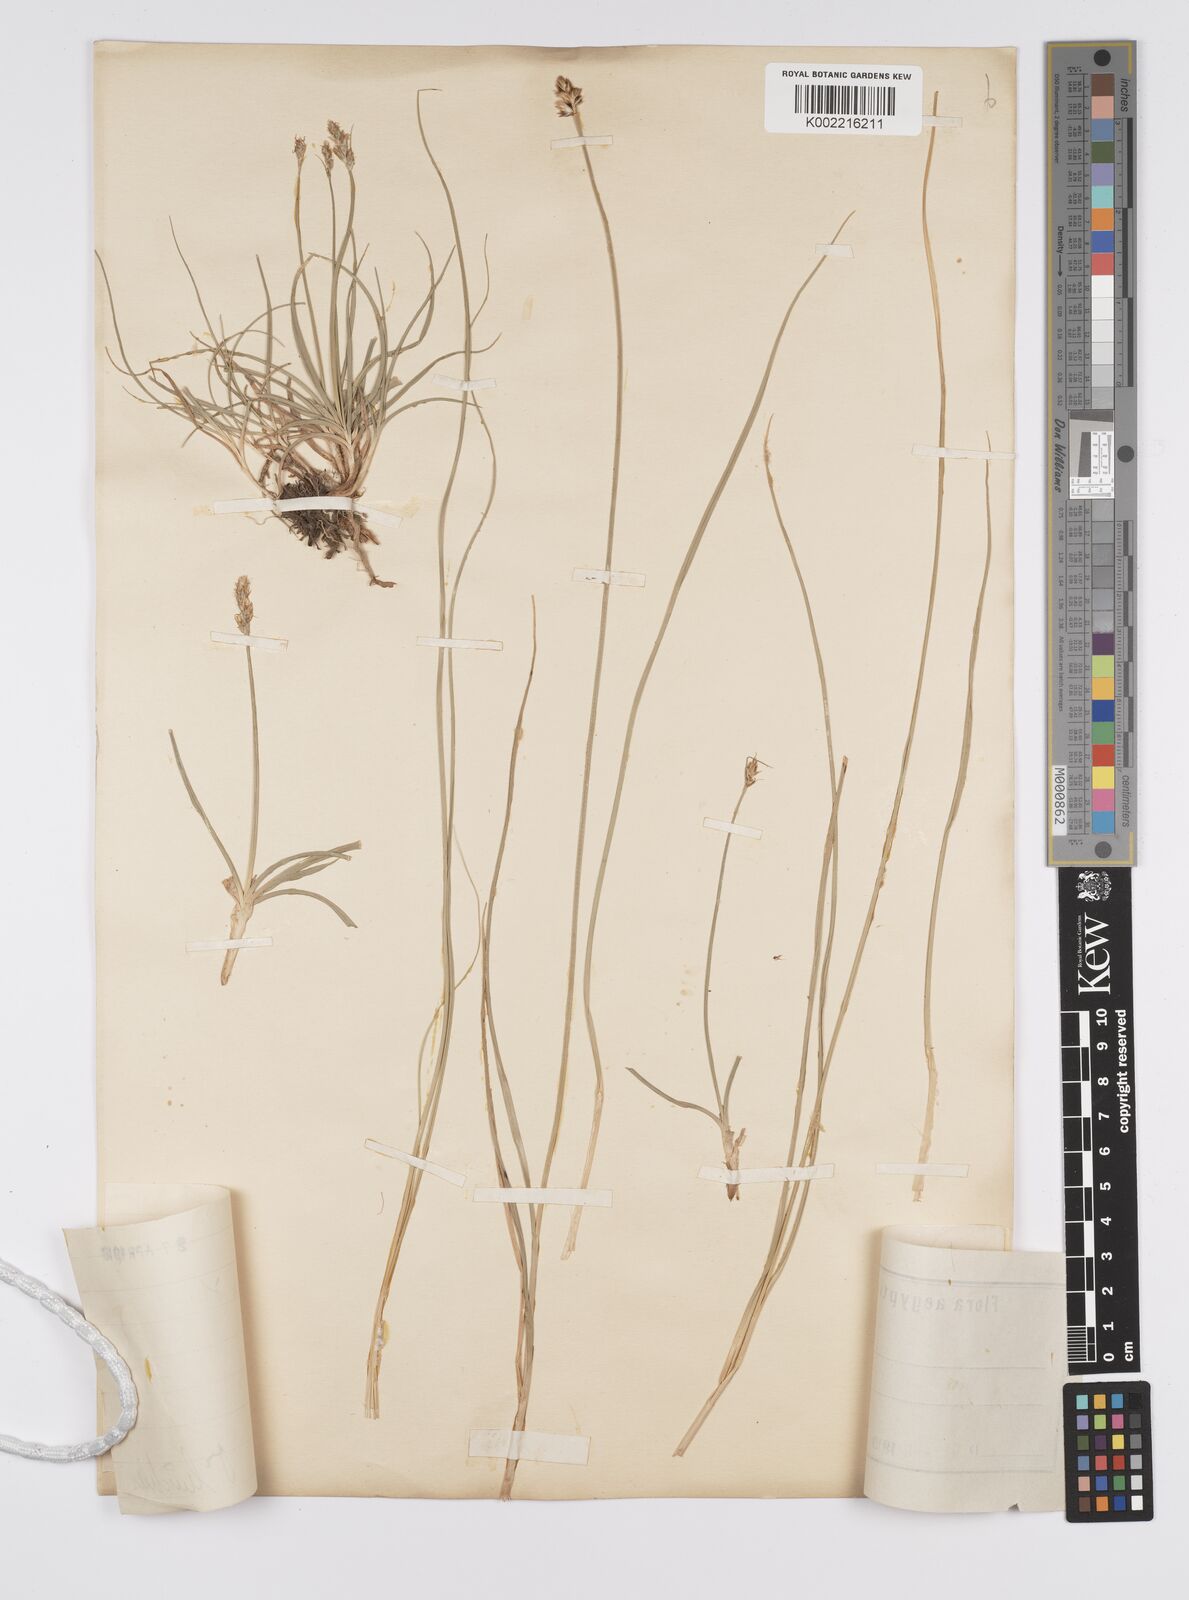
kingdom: Plantae
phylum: Tracheophyta
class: Liliopsida
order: Poales
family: Cyperaceae
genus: Carex
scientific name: Carex divisa
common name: Divided sedge
